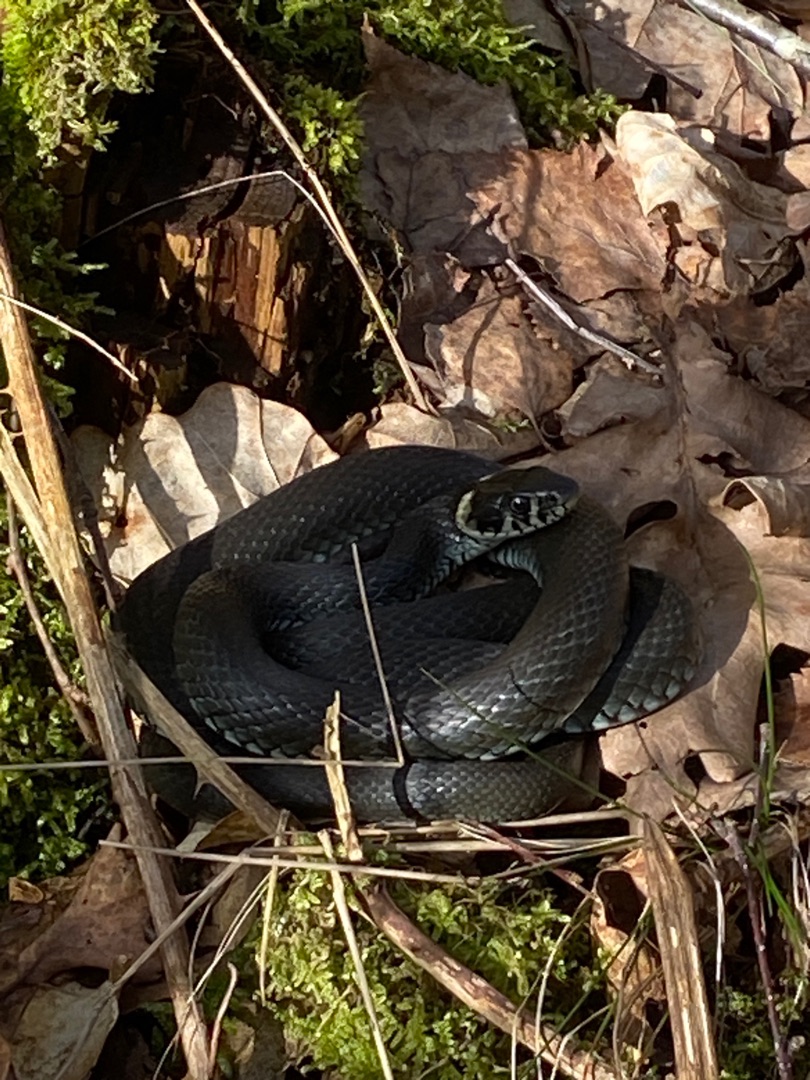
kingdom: Animalia
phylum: Chordata
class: Squamata
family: Colubridae
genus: Natrix
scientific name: Natrix natrix
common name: Snog
